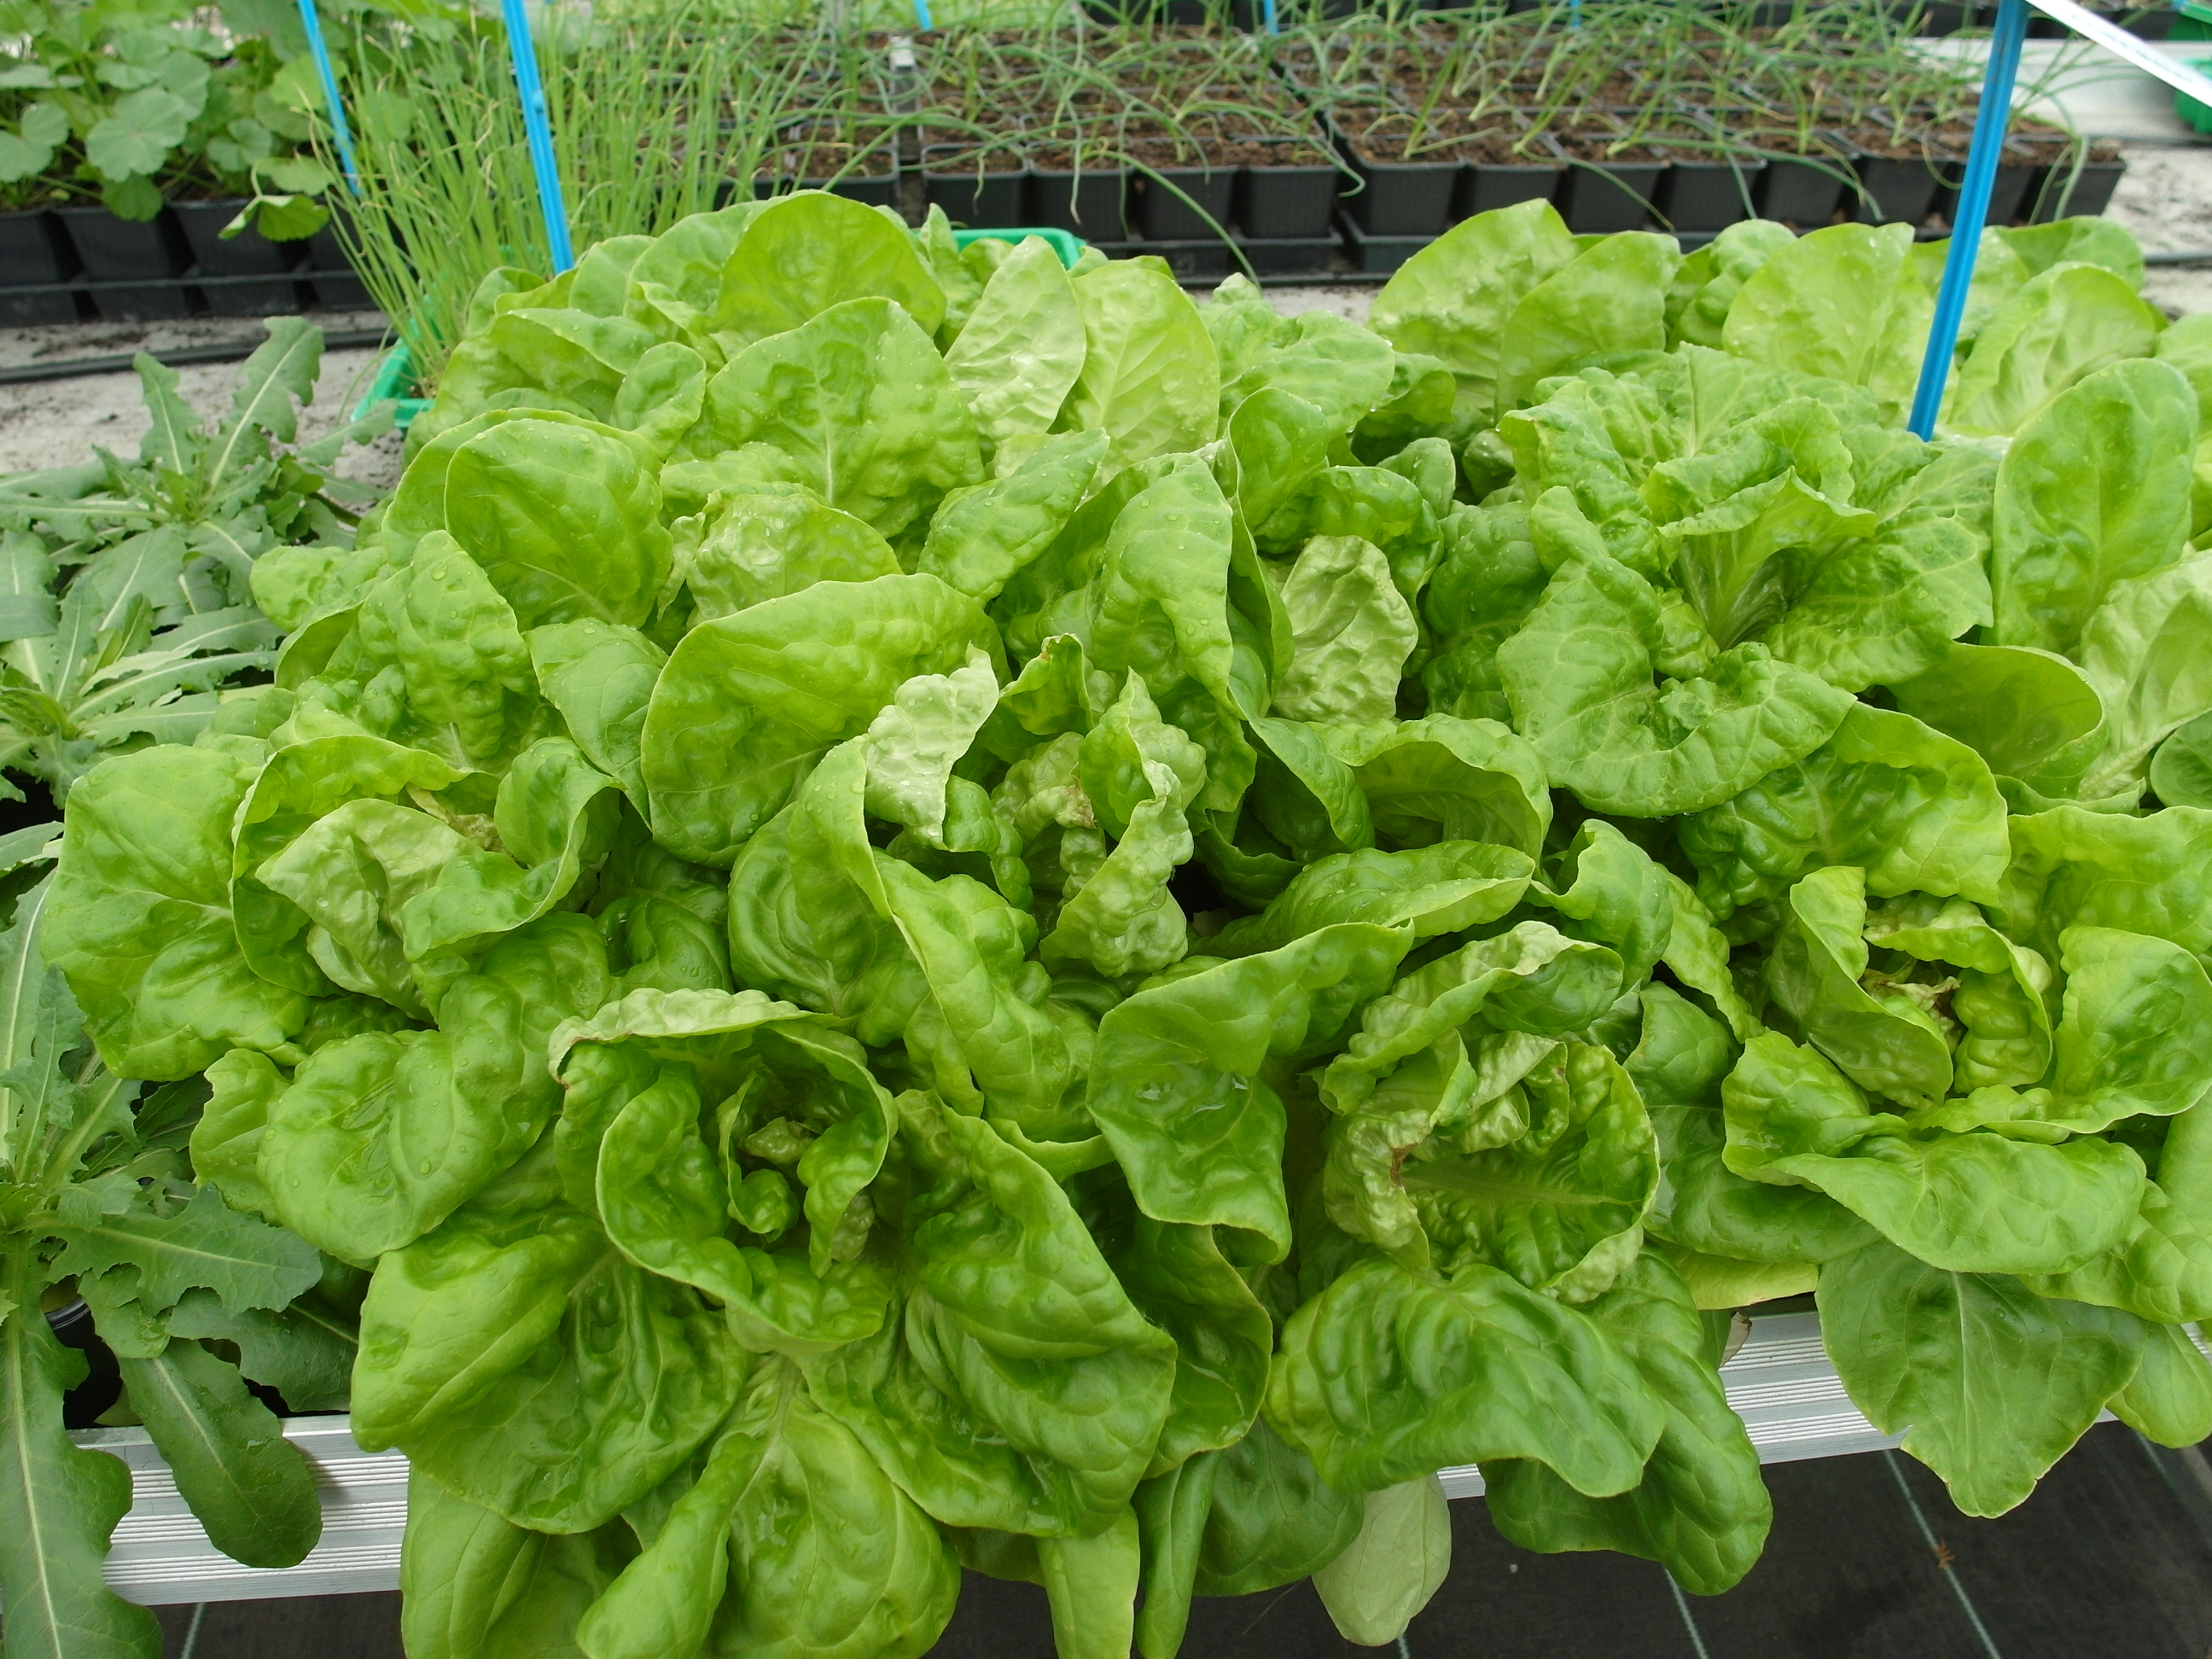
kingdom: Plantae
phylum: Tracheophyta
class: Magnoliopsida
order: Asterales
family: Asteraceae
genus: Lactuca
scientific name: Lactuca sativa
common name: Garden lettuce
